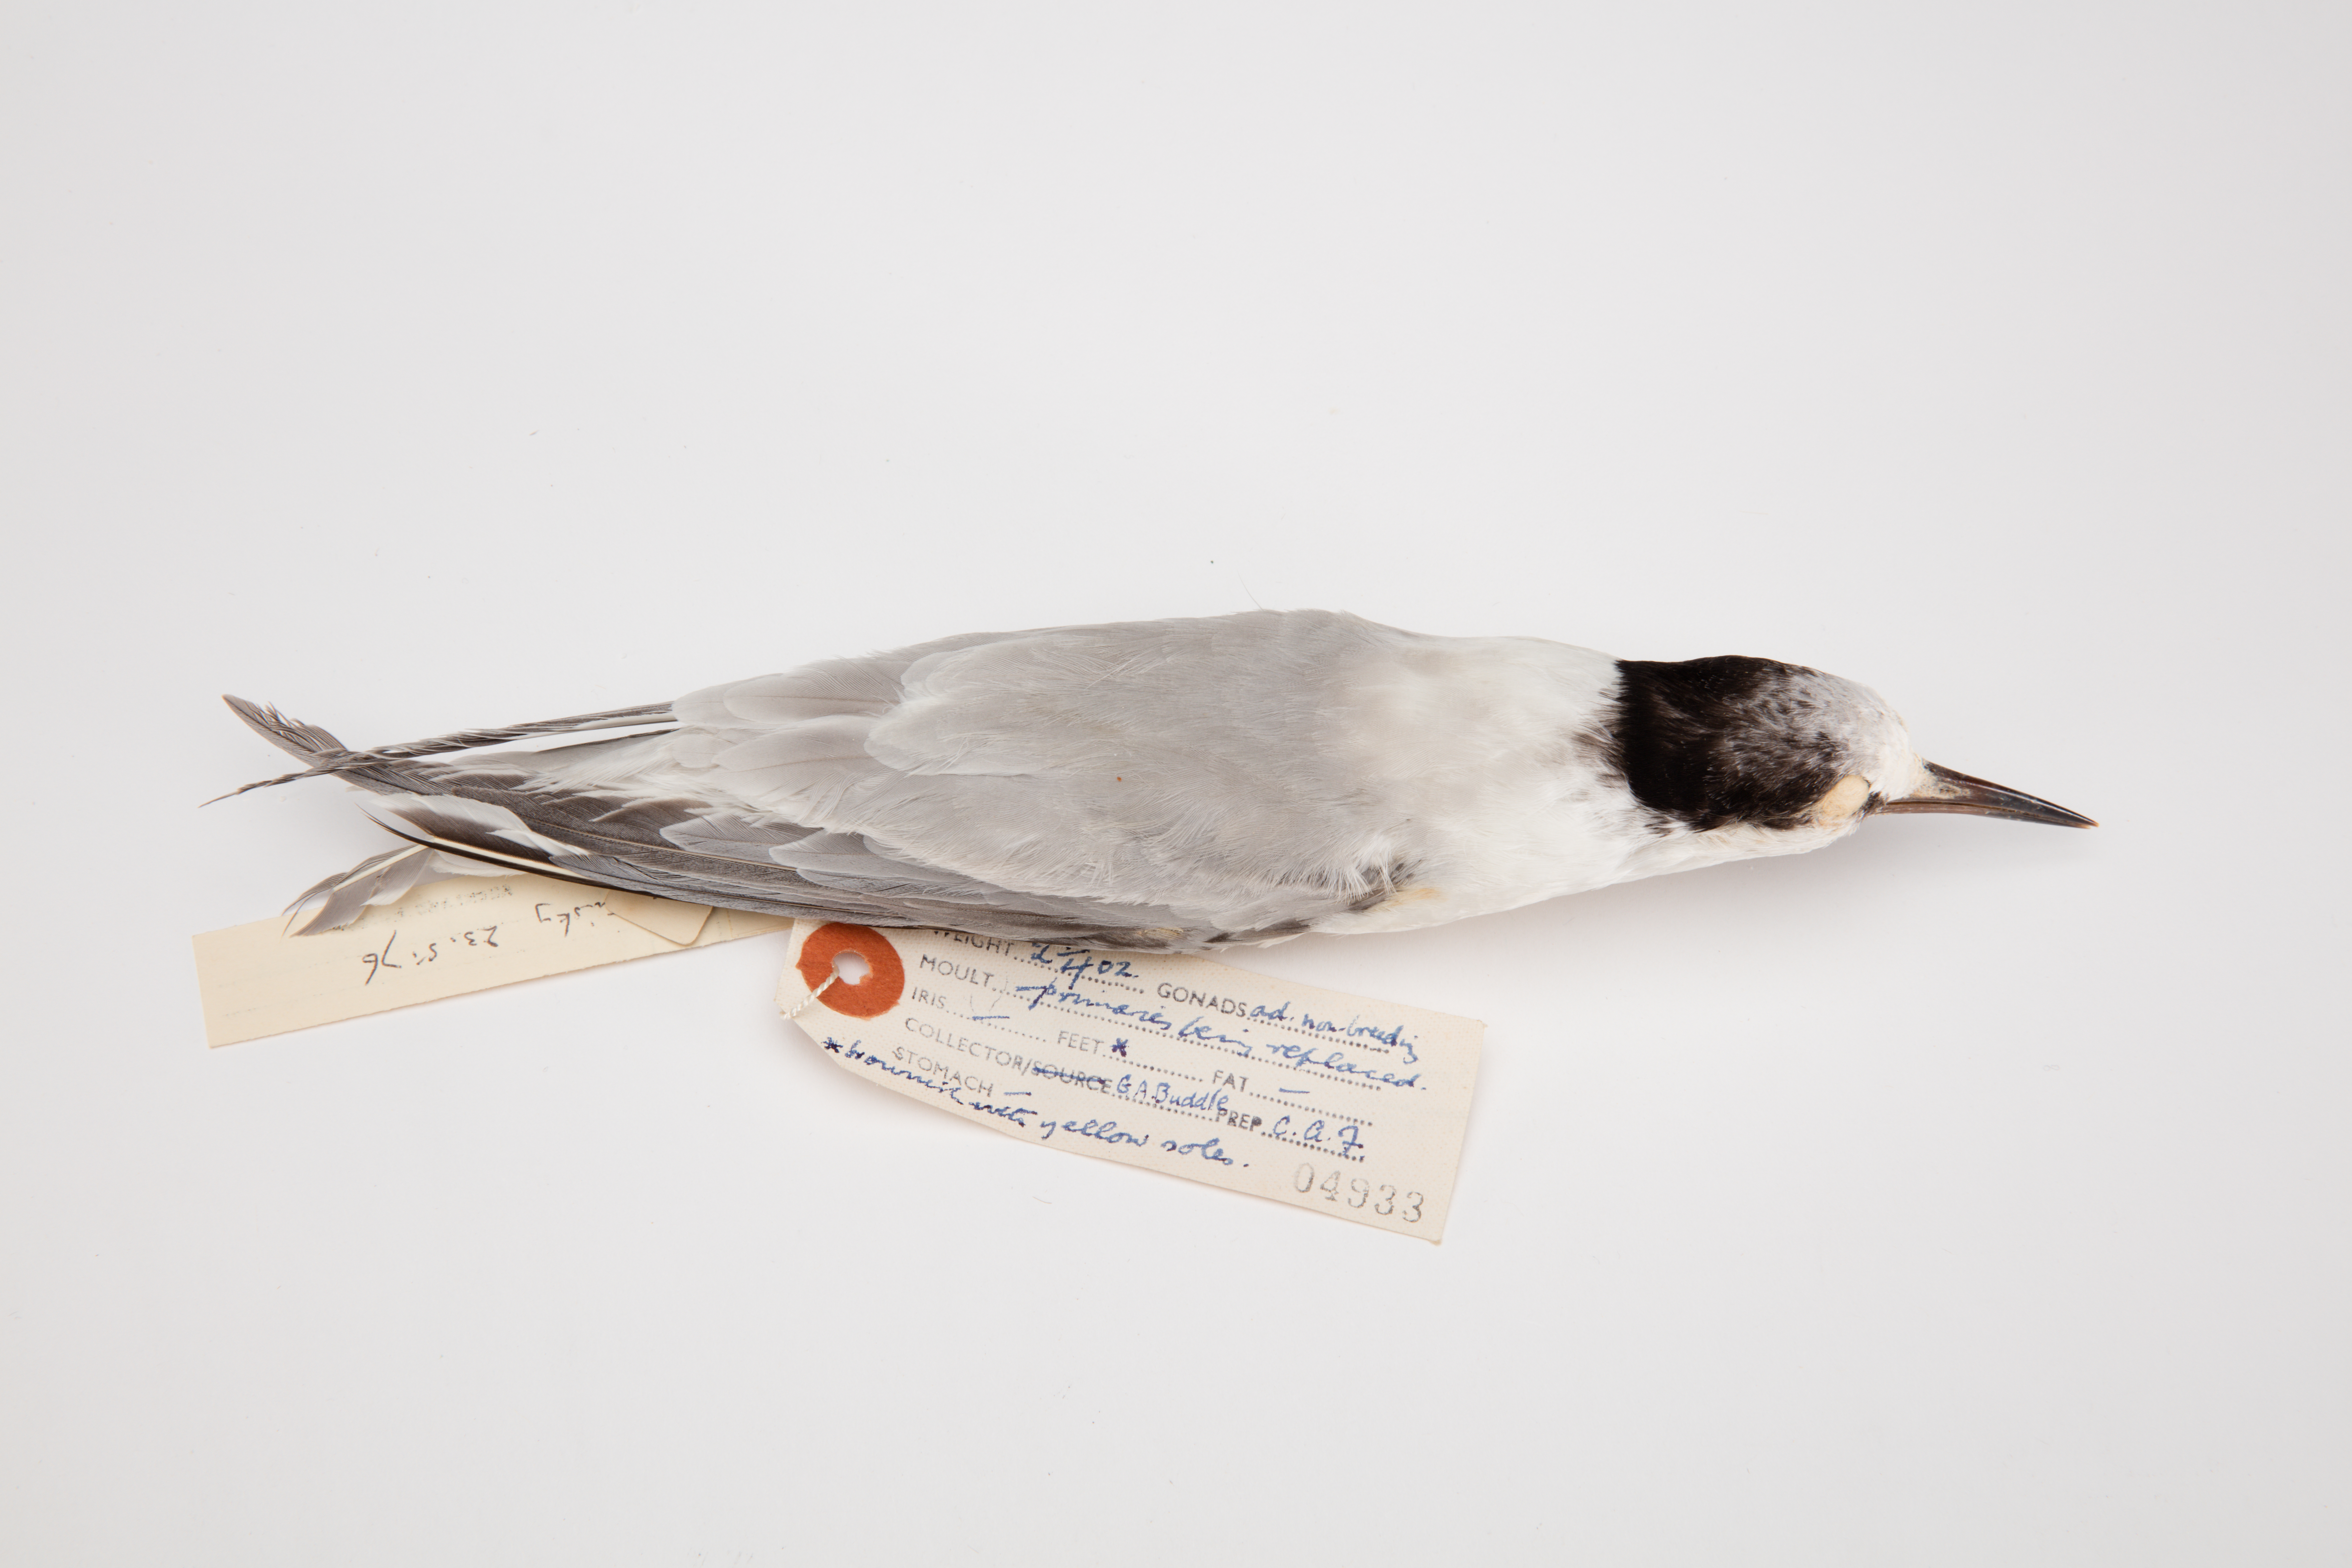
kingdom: Animalia
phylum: Chordata
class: Aves
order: Charadriiformes
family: Laridae
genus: Sternula
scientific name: Sternula albifrons
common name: Little tern
